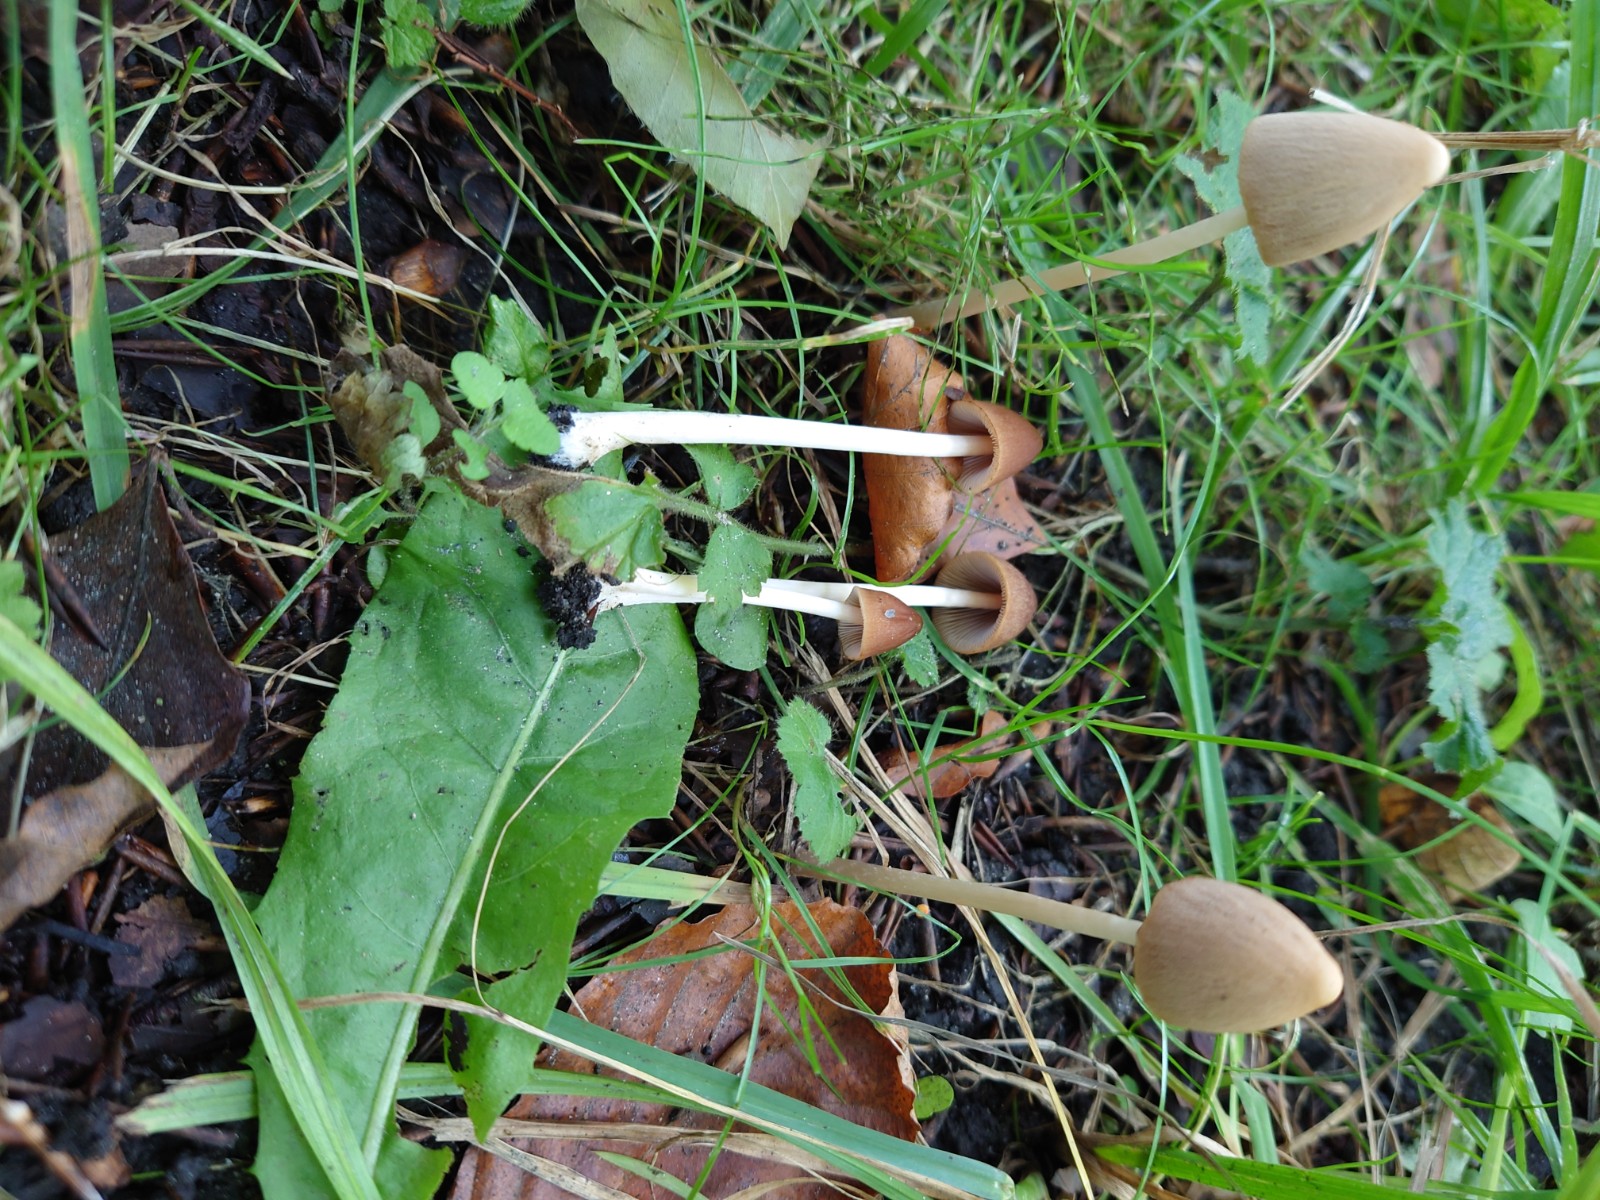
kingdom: Fungi
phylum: Basidiomycota
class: Agaricomycetes
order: Agaricales
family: Psathyrellaceae
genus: Parasola
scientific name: Parasola conopilea
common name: kegle-hjulhat
